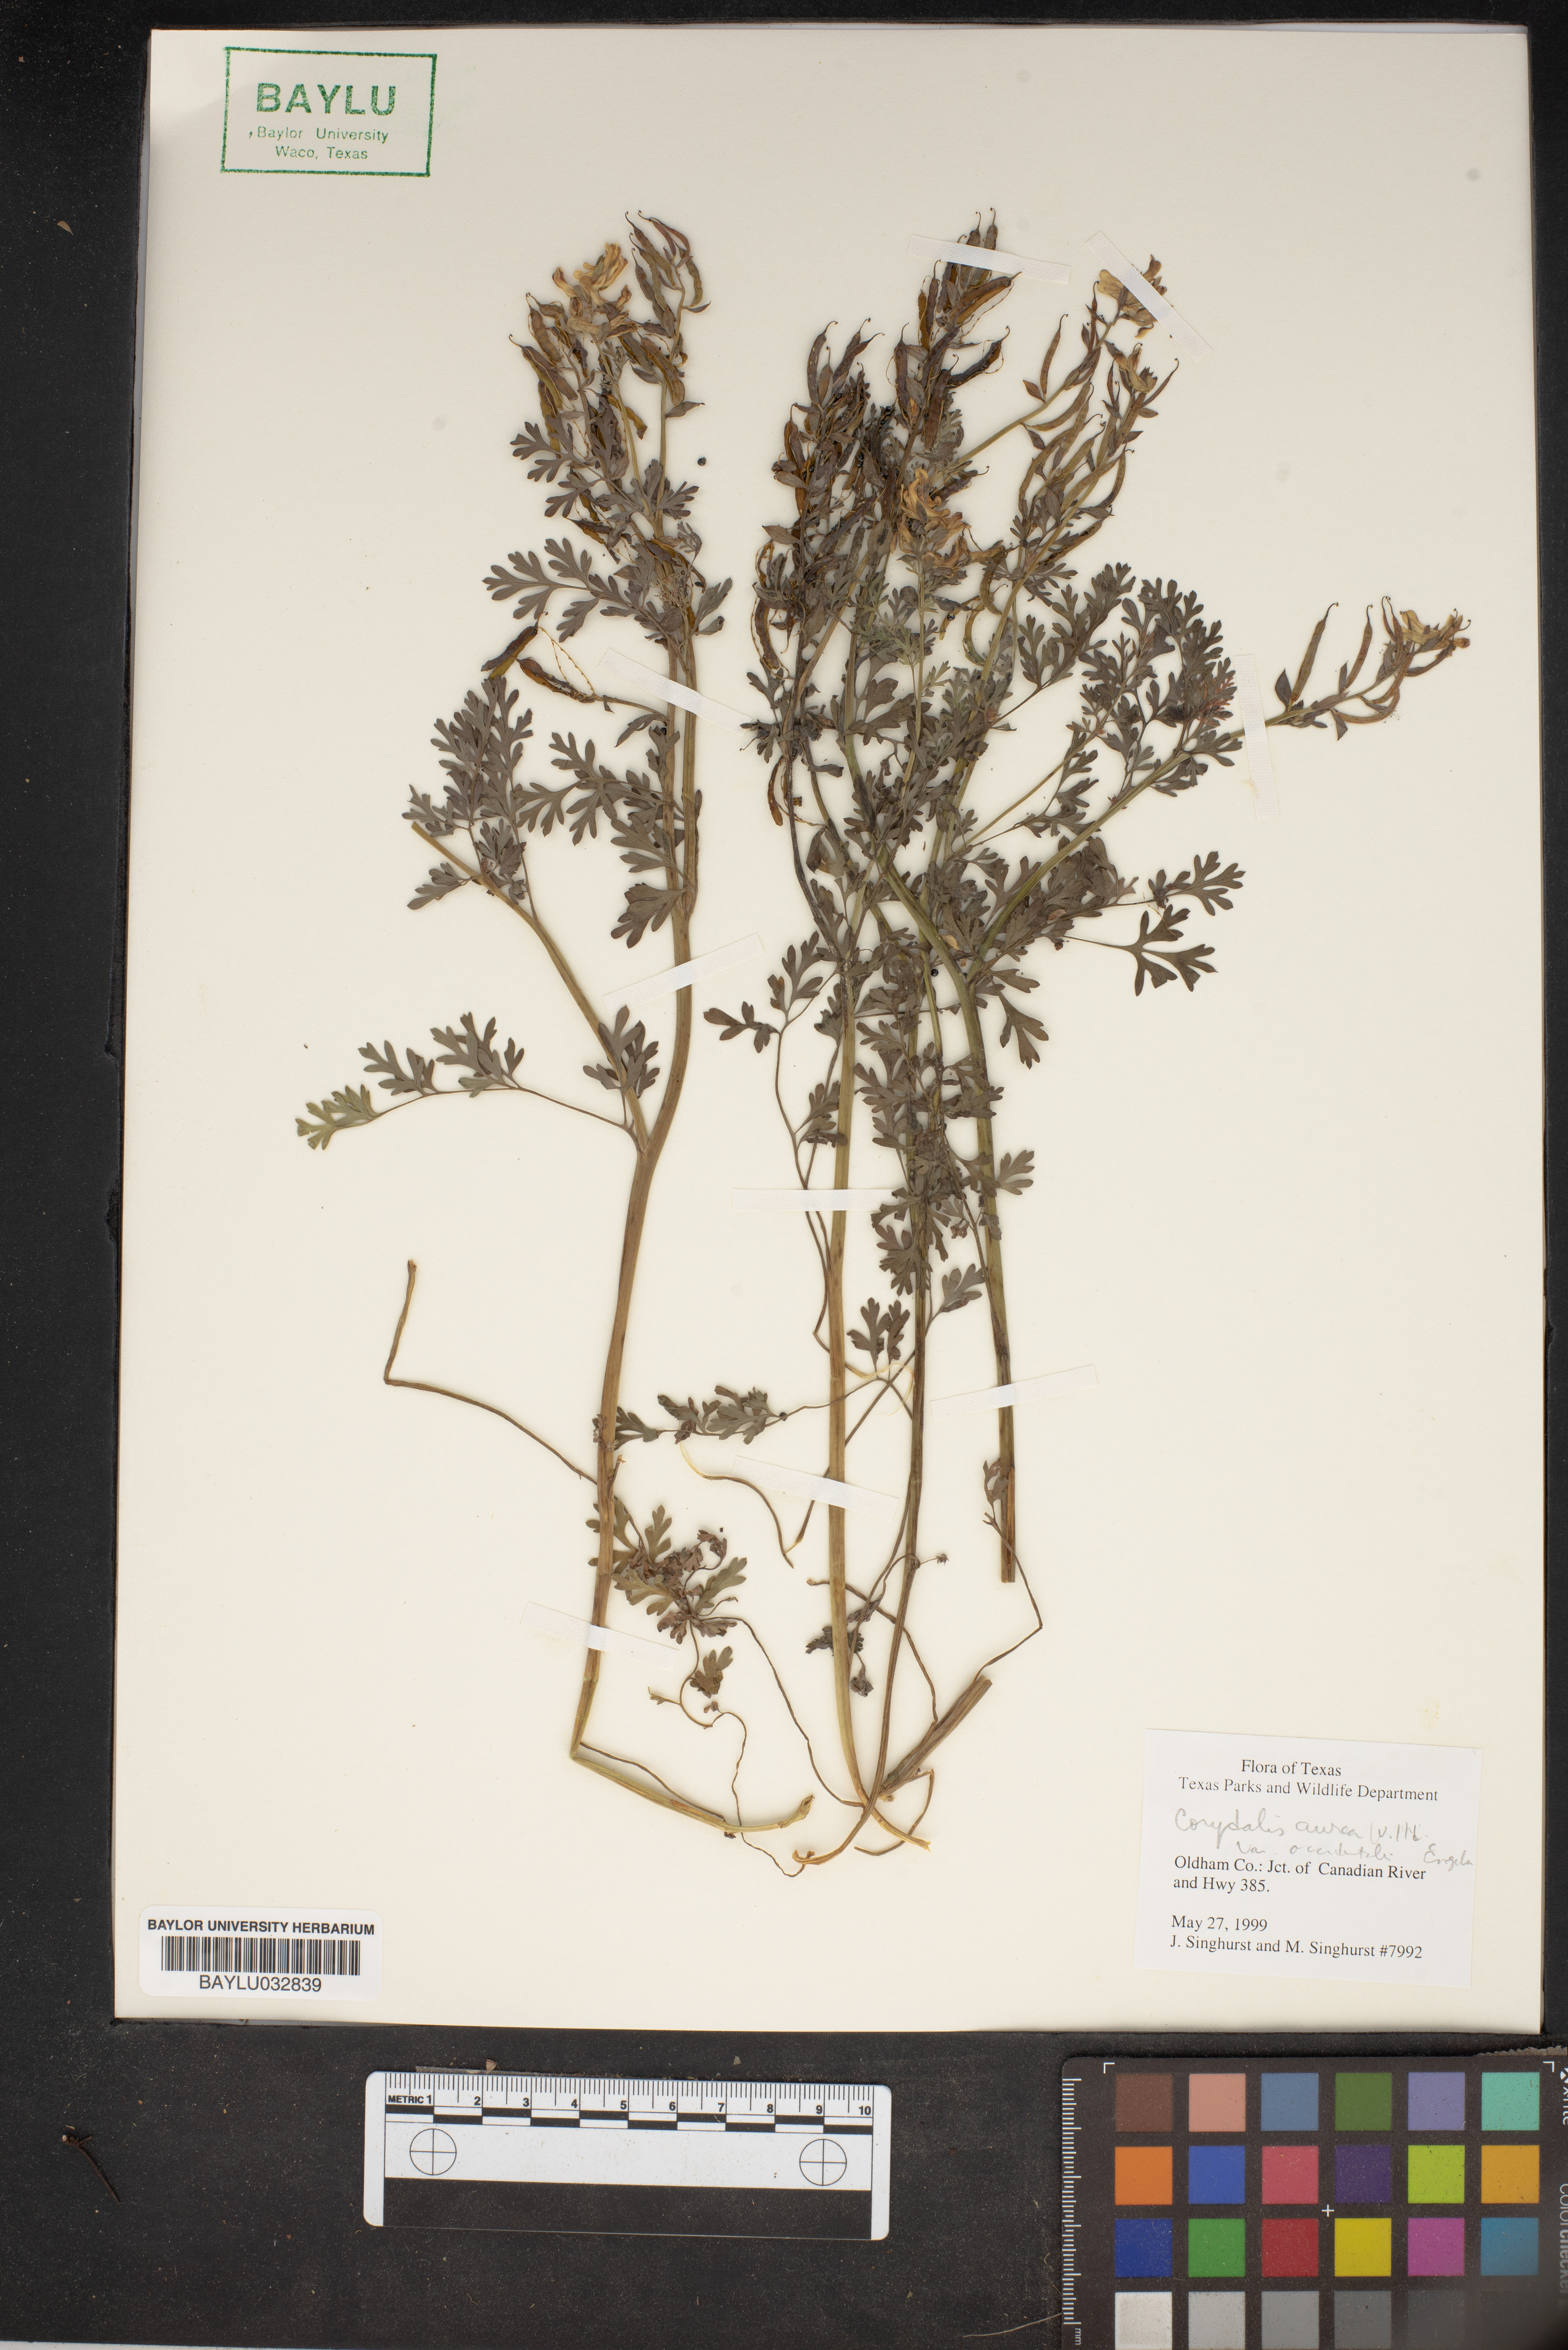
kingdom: Plantae
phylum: Tracheophyta
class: Magnoliopsida
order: Ranunculales
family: Papaveraceae
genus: Corydalis
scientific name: Corydalis aurea
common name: Golden corydalis
